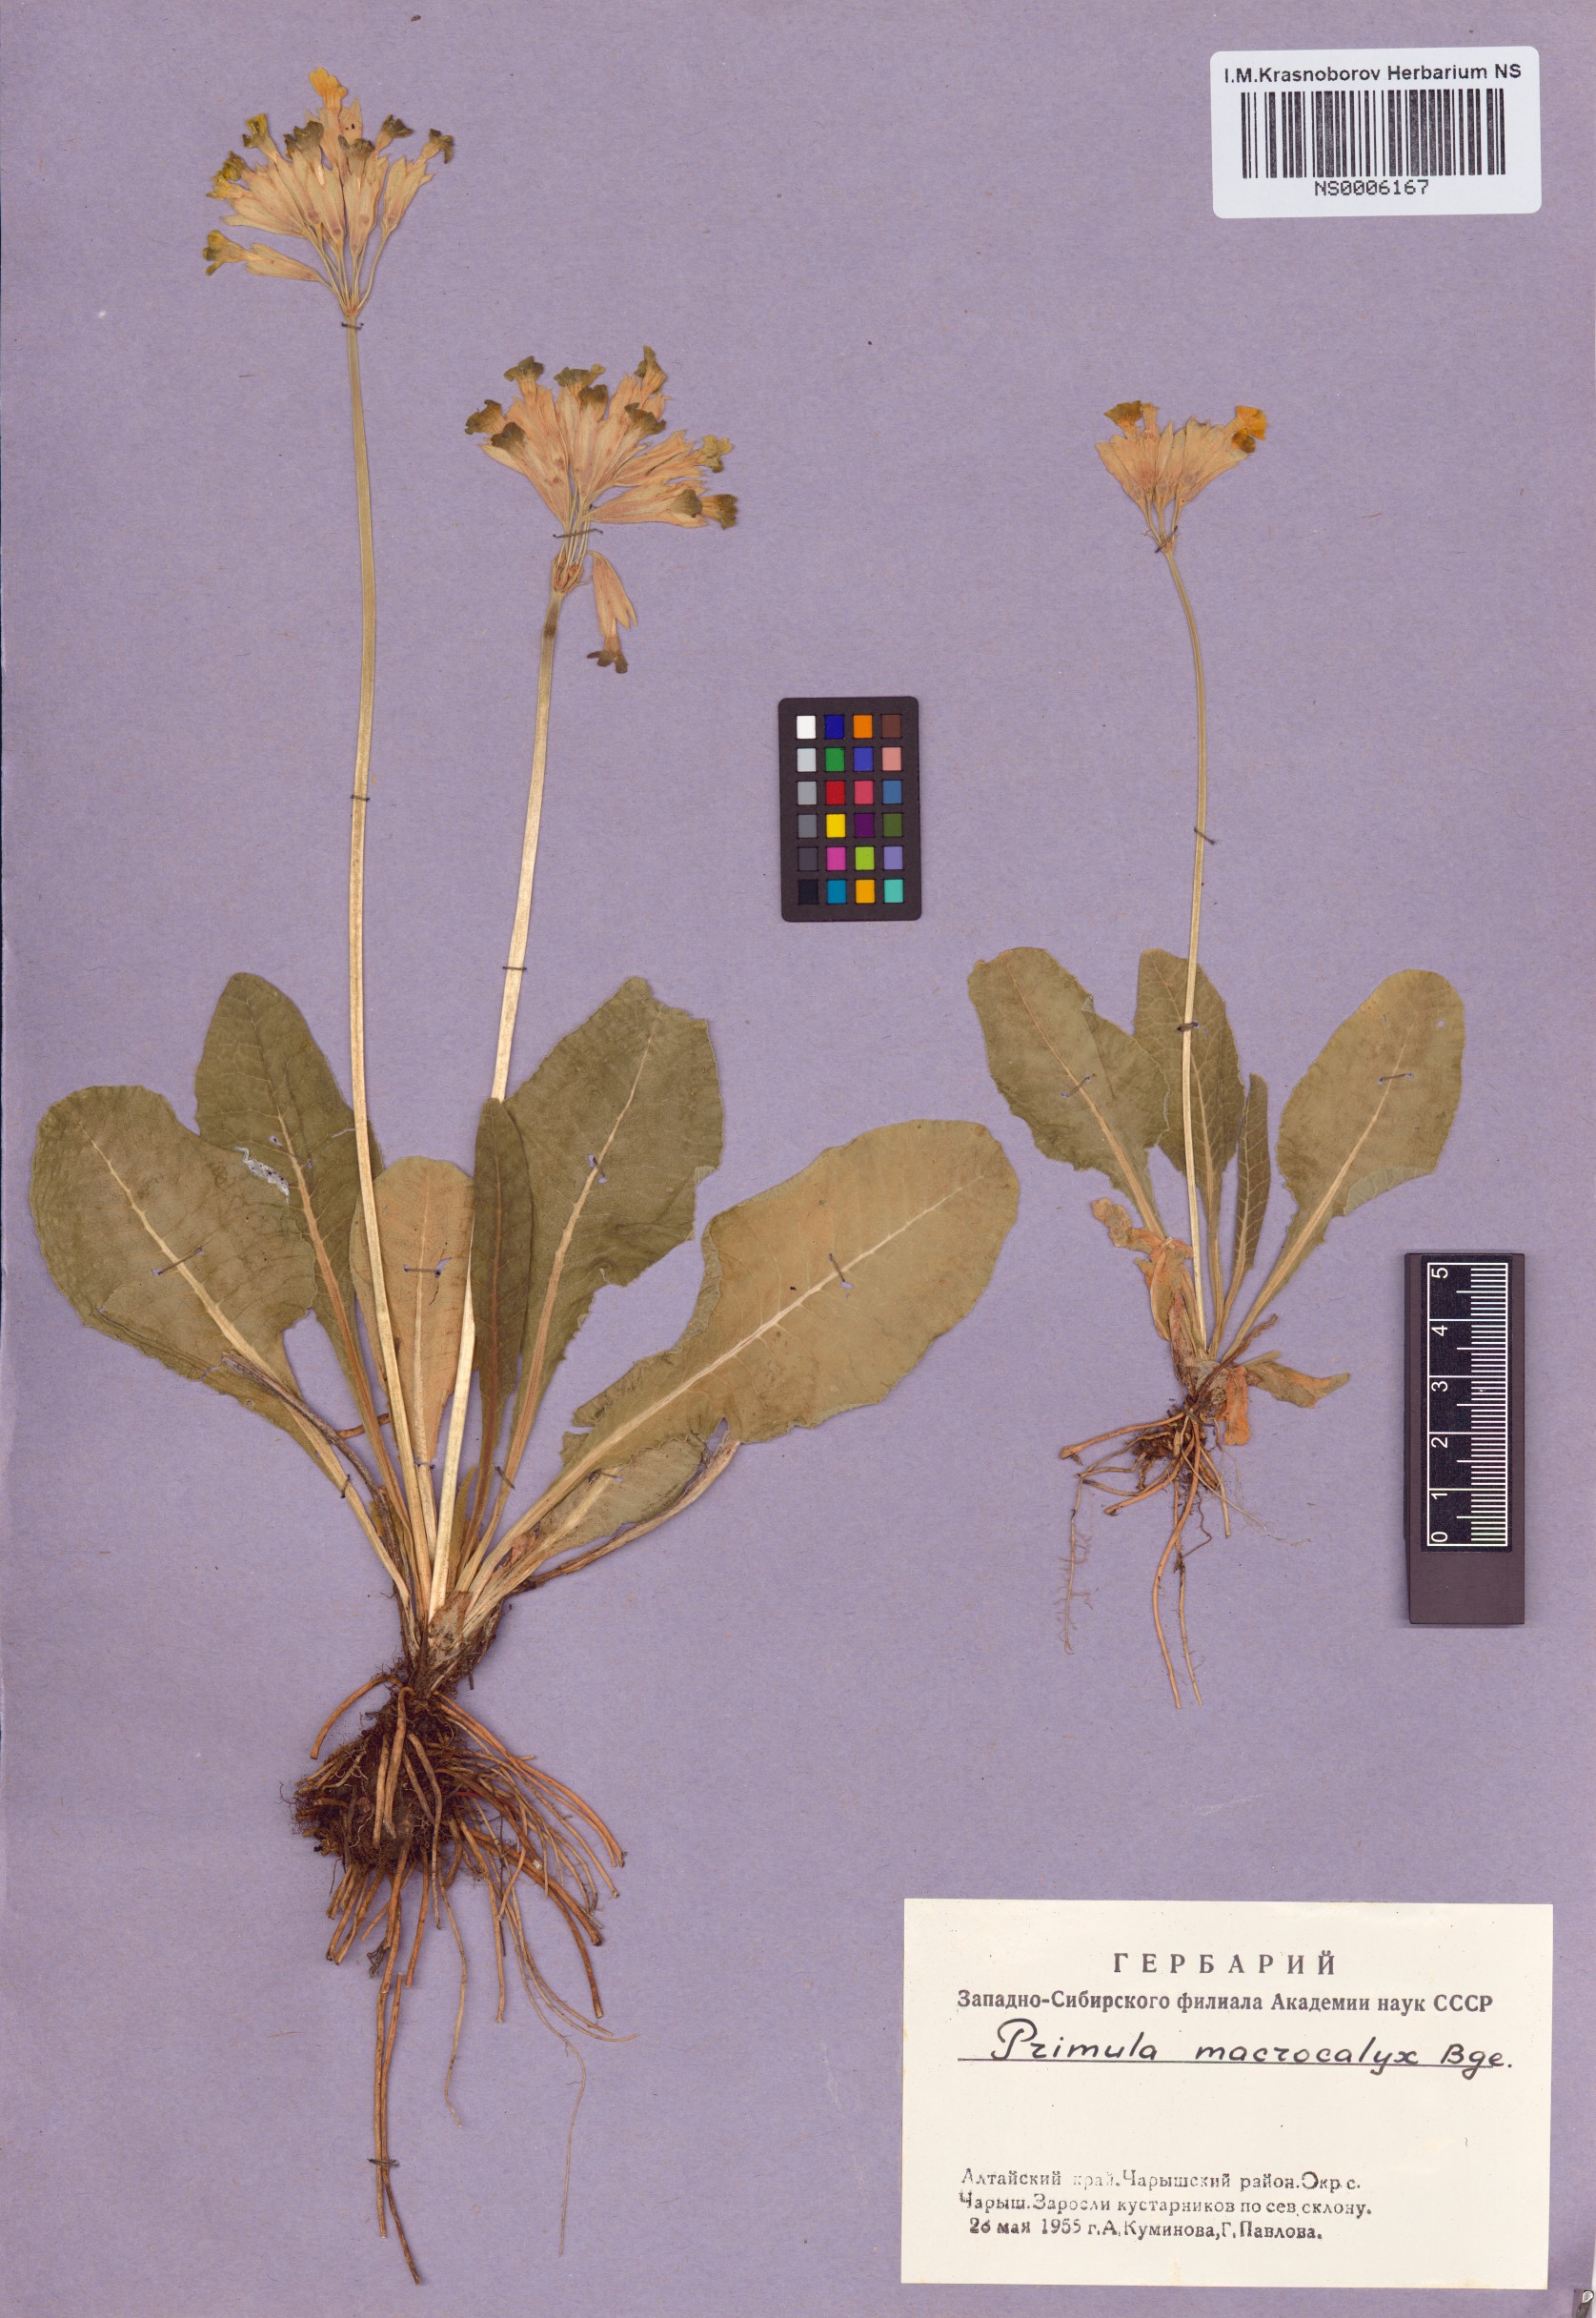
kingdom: Plantae
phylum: Tracheophyta
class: Magnoliopsida
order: Ericales
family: Primulaceae
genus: Primula
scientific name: Primula veris
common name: Cowslip
